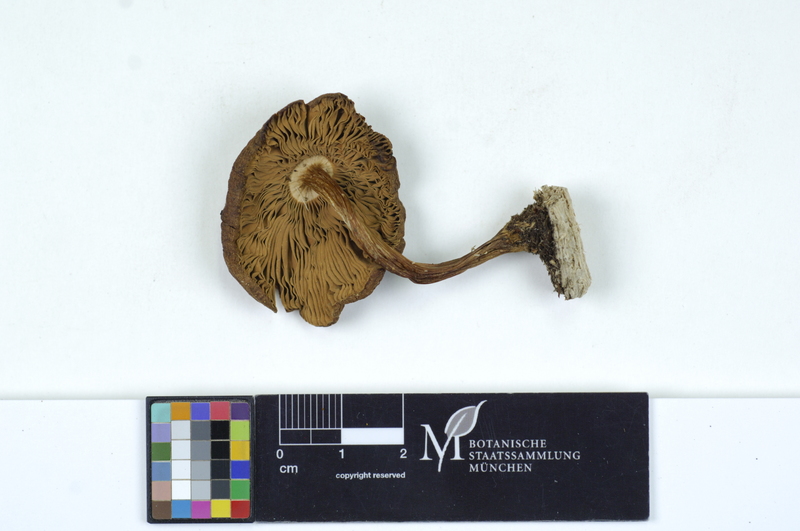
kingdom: Plantae
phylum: Tracheophyta
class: Magnoliopsida
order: Fagales
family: Betulaceae
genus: Alnus
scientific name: Alnus
